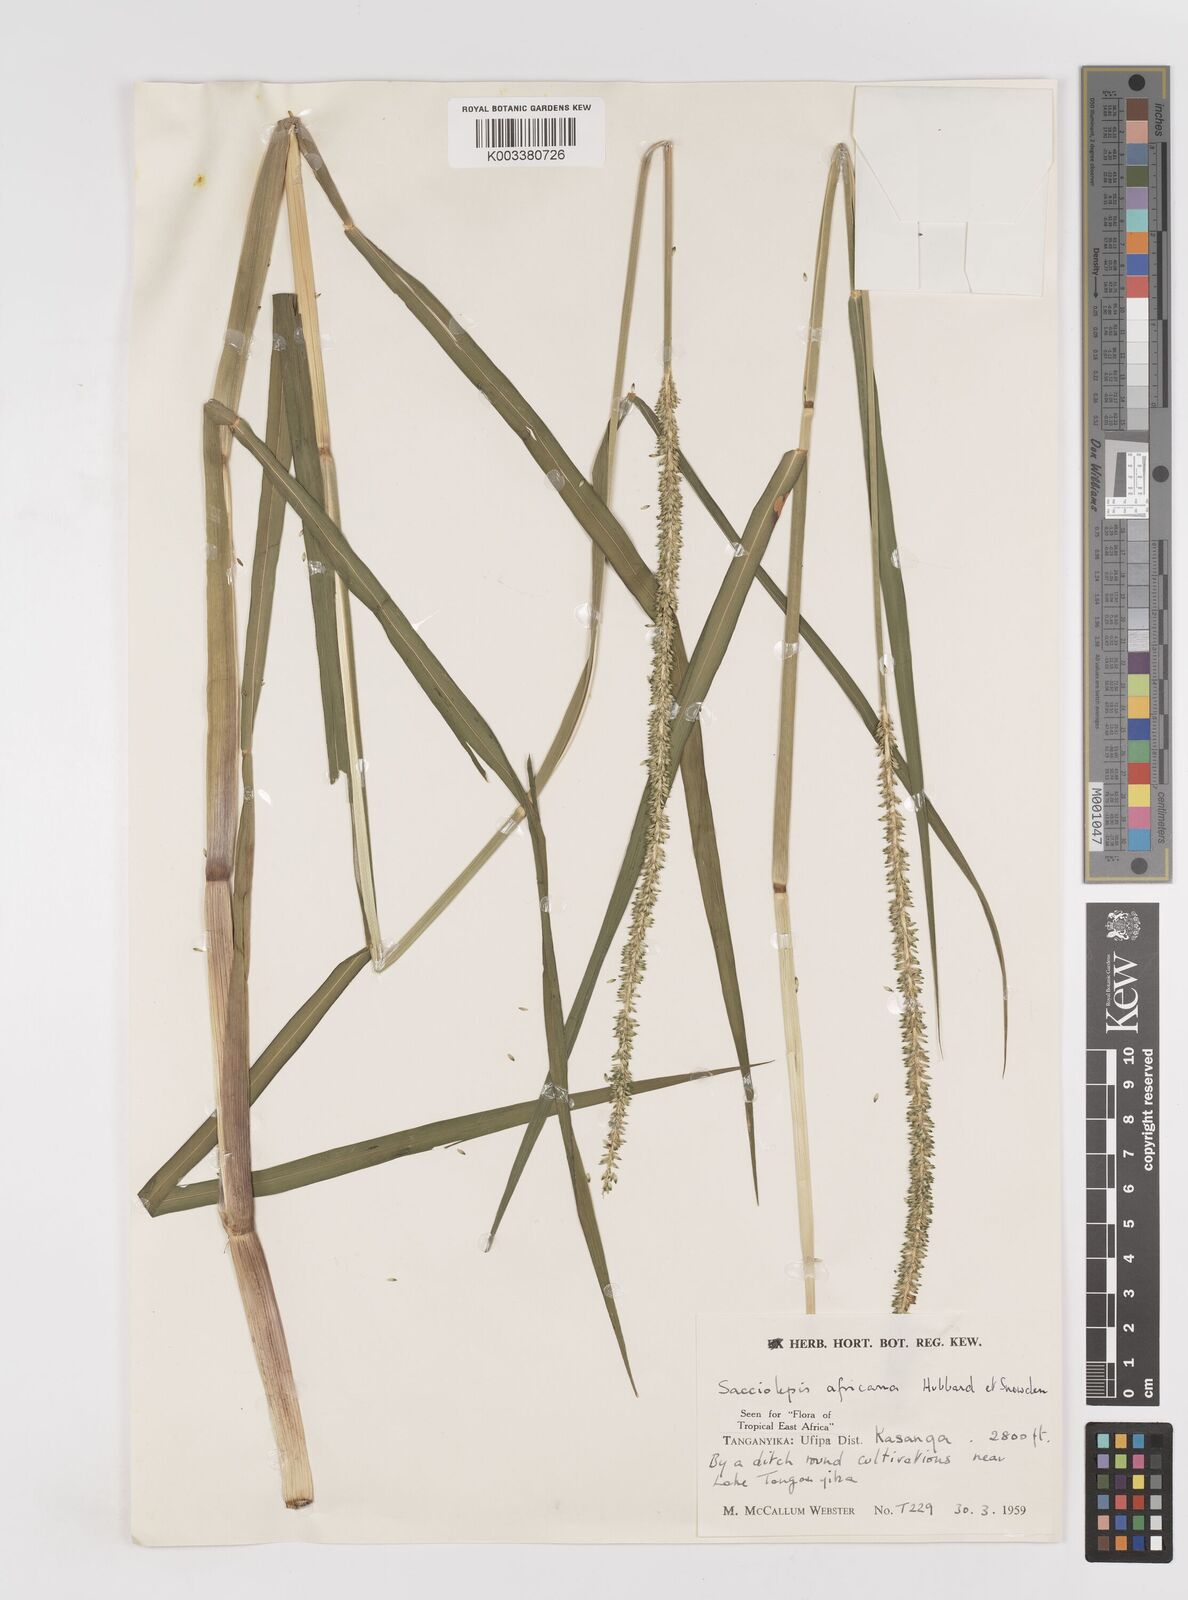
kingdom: Plantae
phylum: Tracheophyta
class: Liliopsida
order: Poales
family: Poaceae
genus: Sacciolepis
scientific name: Sacciolepis africana
